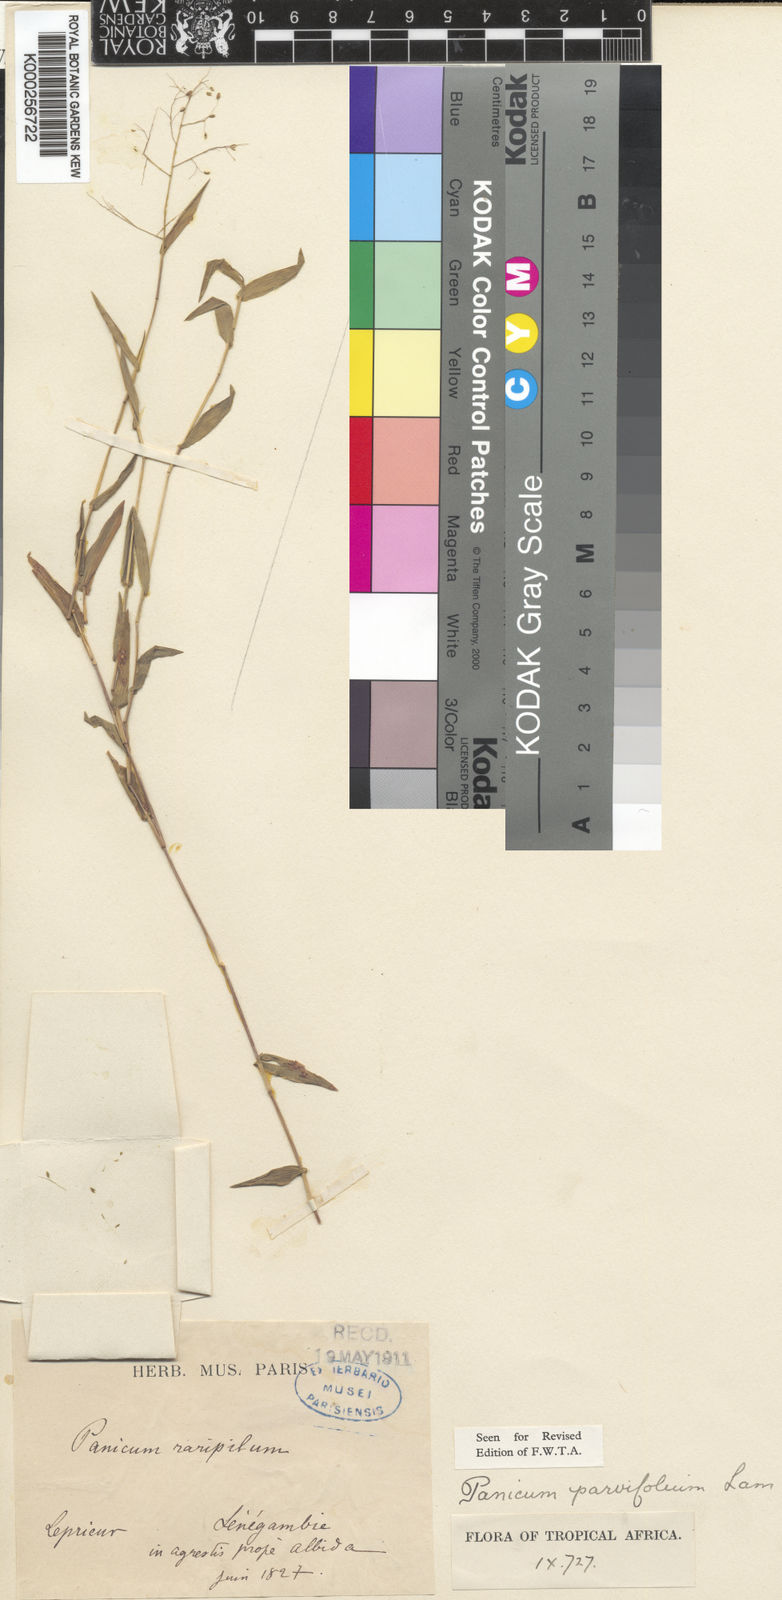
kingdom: Plantae
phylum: Tracheophyta
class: Liliopsida
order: Poales
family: Poaceae
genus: Trichanthecium
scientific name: Trichanthecium parvifolium
